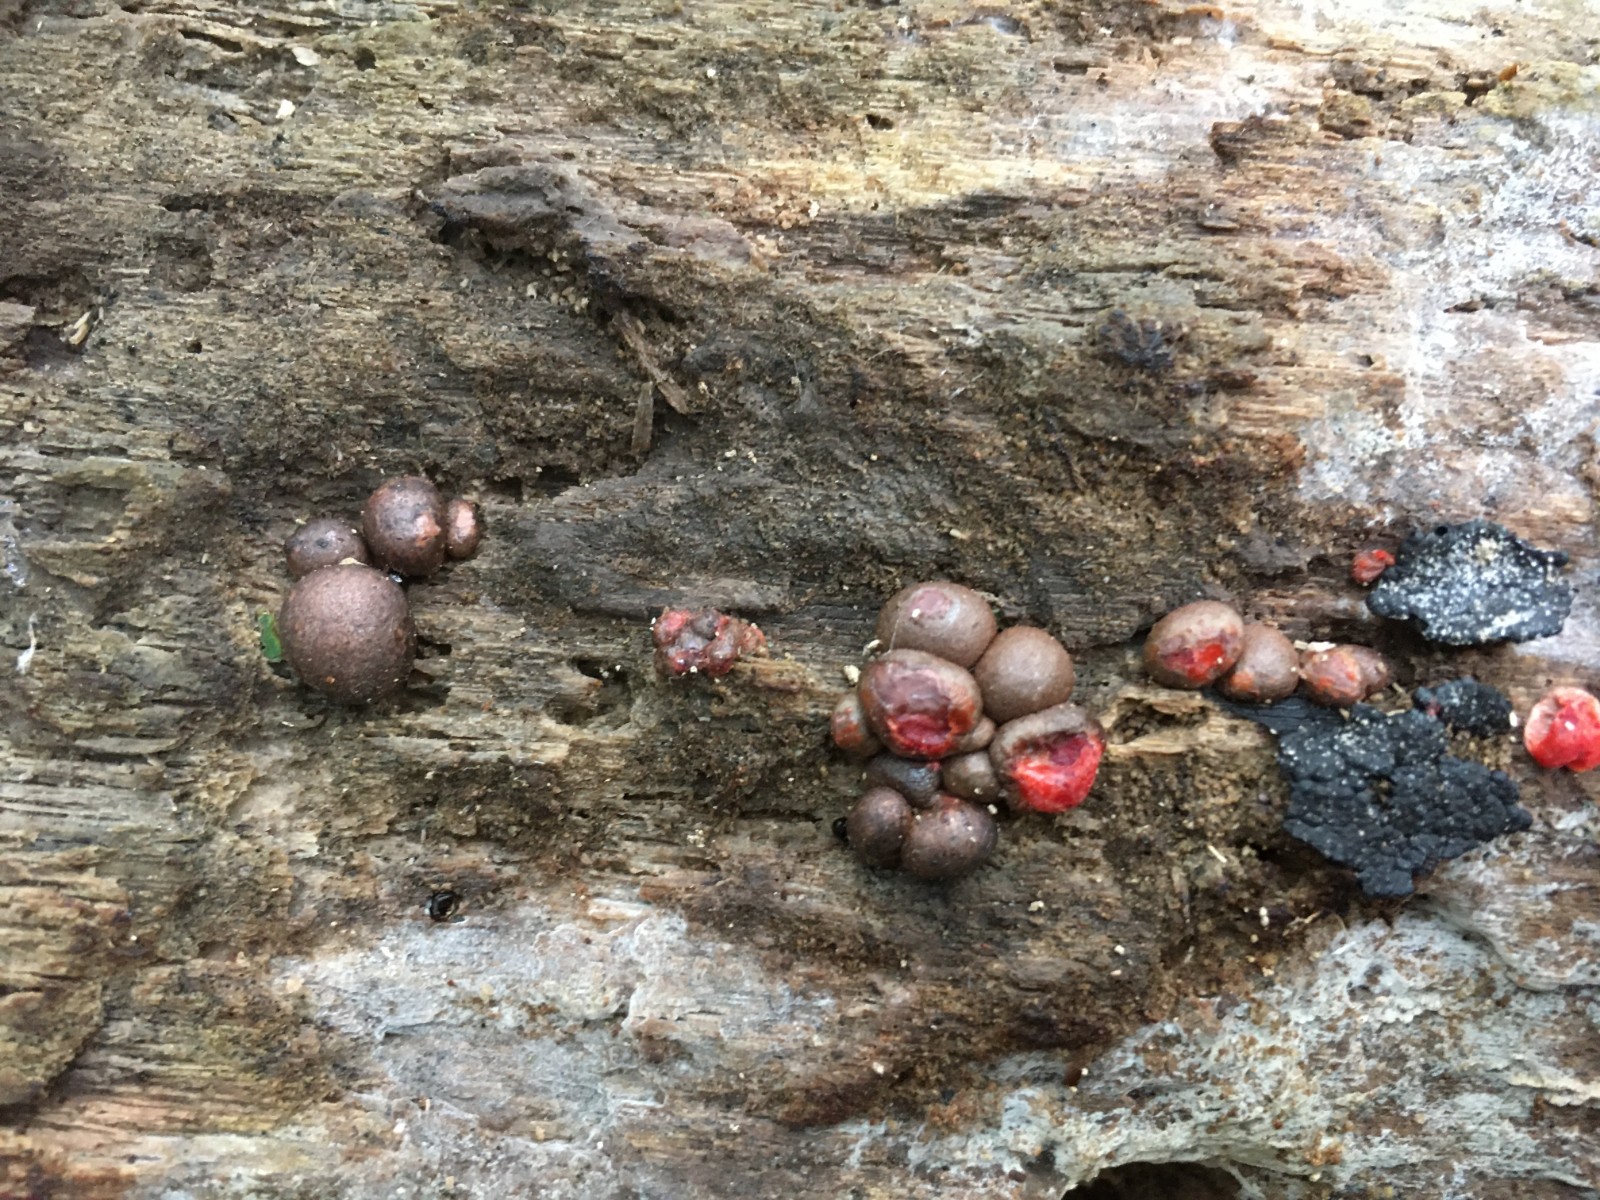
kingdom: Protozoa
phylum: Mycetozoa
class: Myxomycetes
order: Cribrariales
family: Tubiferaceae
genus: Lycogala
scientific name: Lycogala epidendrum
